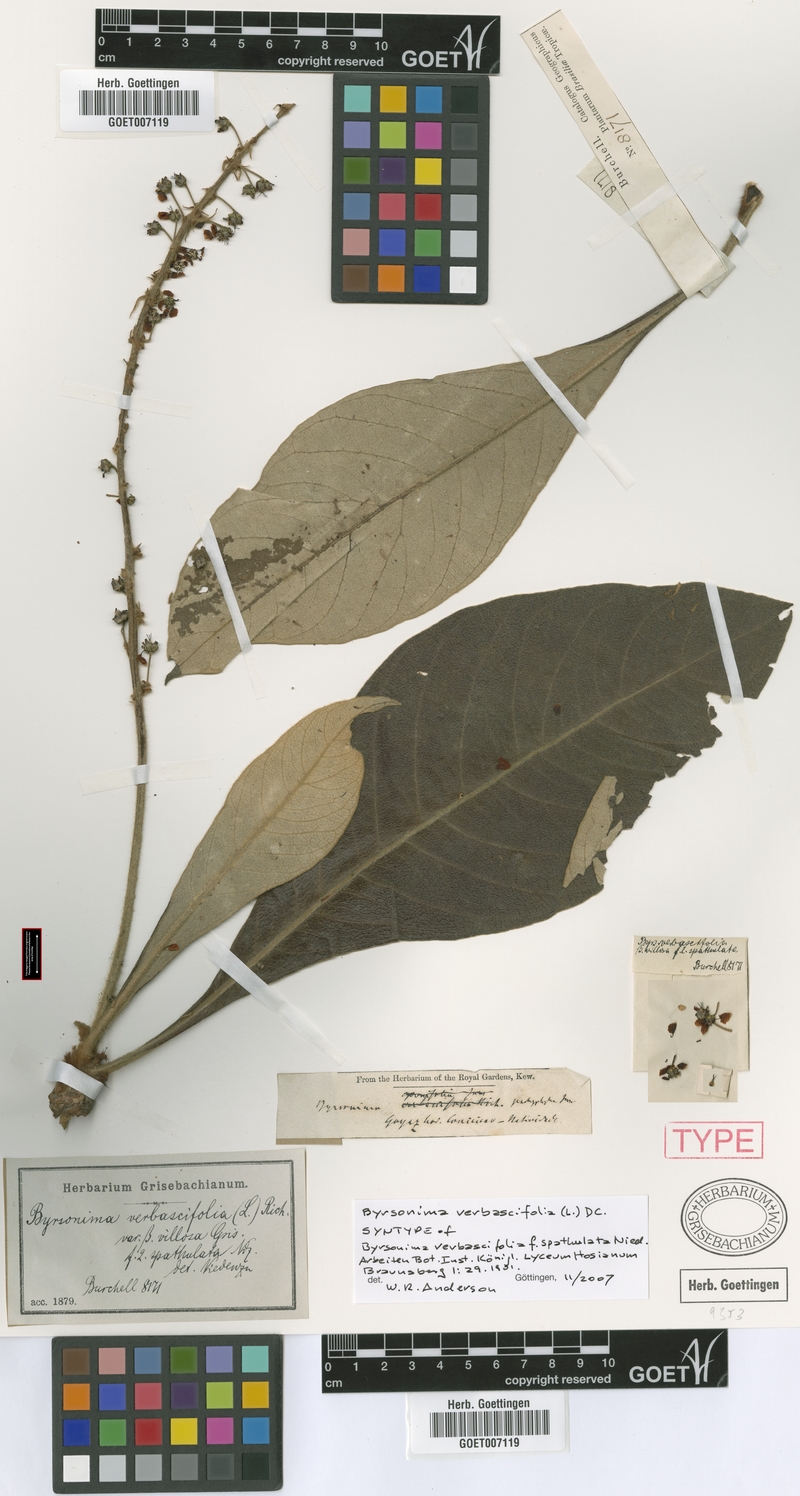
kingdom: Plantae
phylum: Tracheophyta
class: Magnoliopsida
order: Malpighiales
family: Malpighiaceae
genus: Byrsonima
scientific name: Byrsonima verbascifolia
